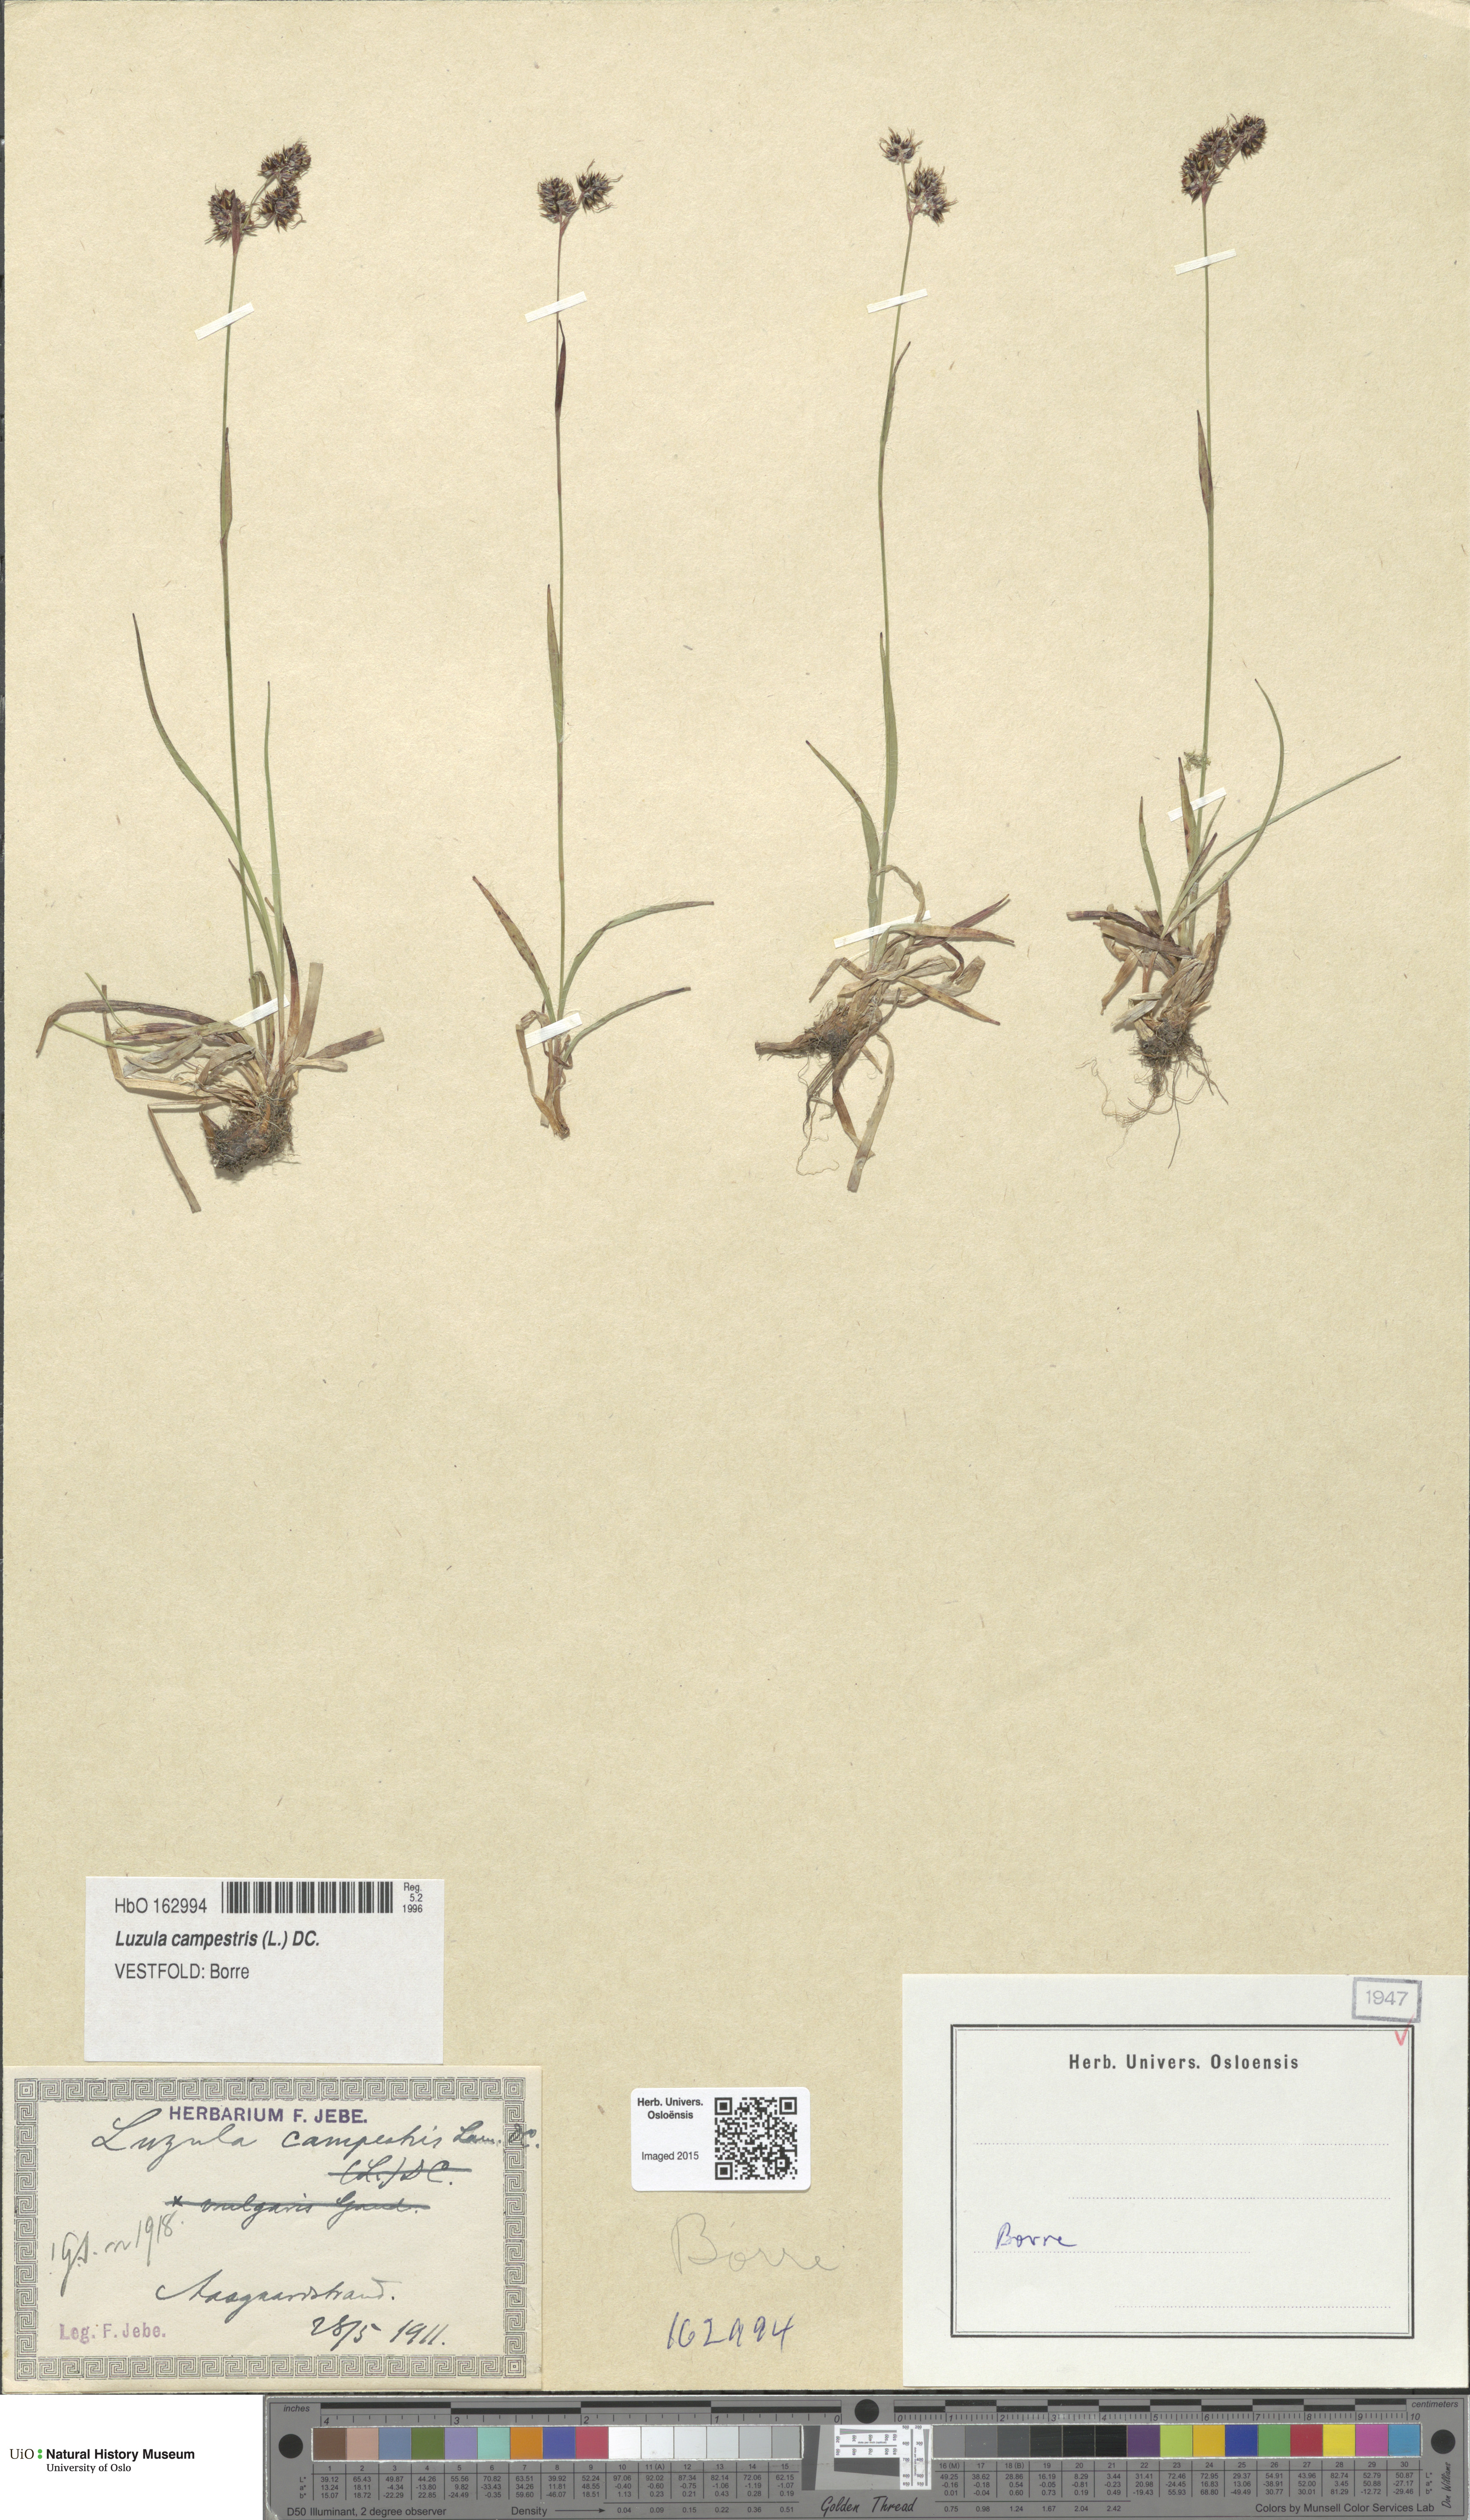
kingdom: Plantae
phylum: Tracheophyta
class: Liliopsida
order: Poales
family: Juncaceae
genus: Luzula
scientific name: Luzula campestris
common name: Field wood-rush
